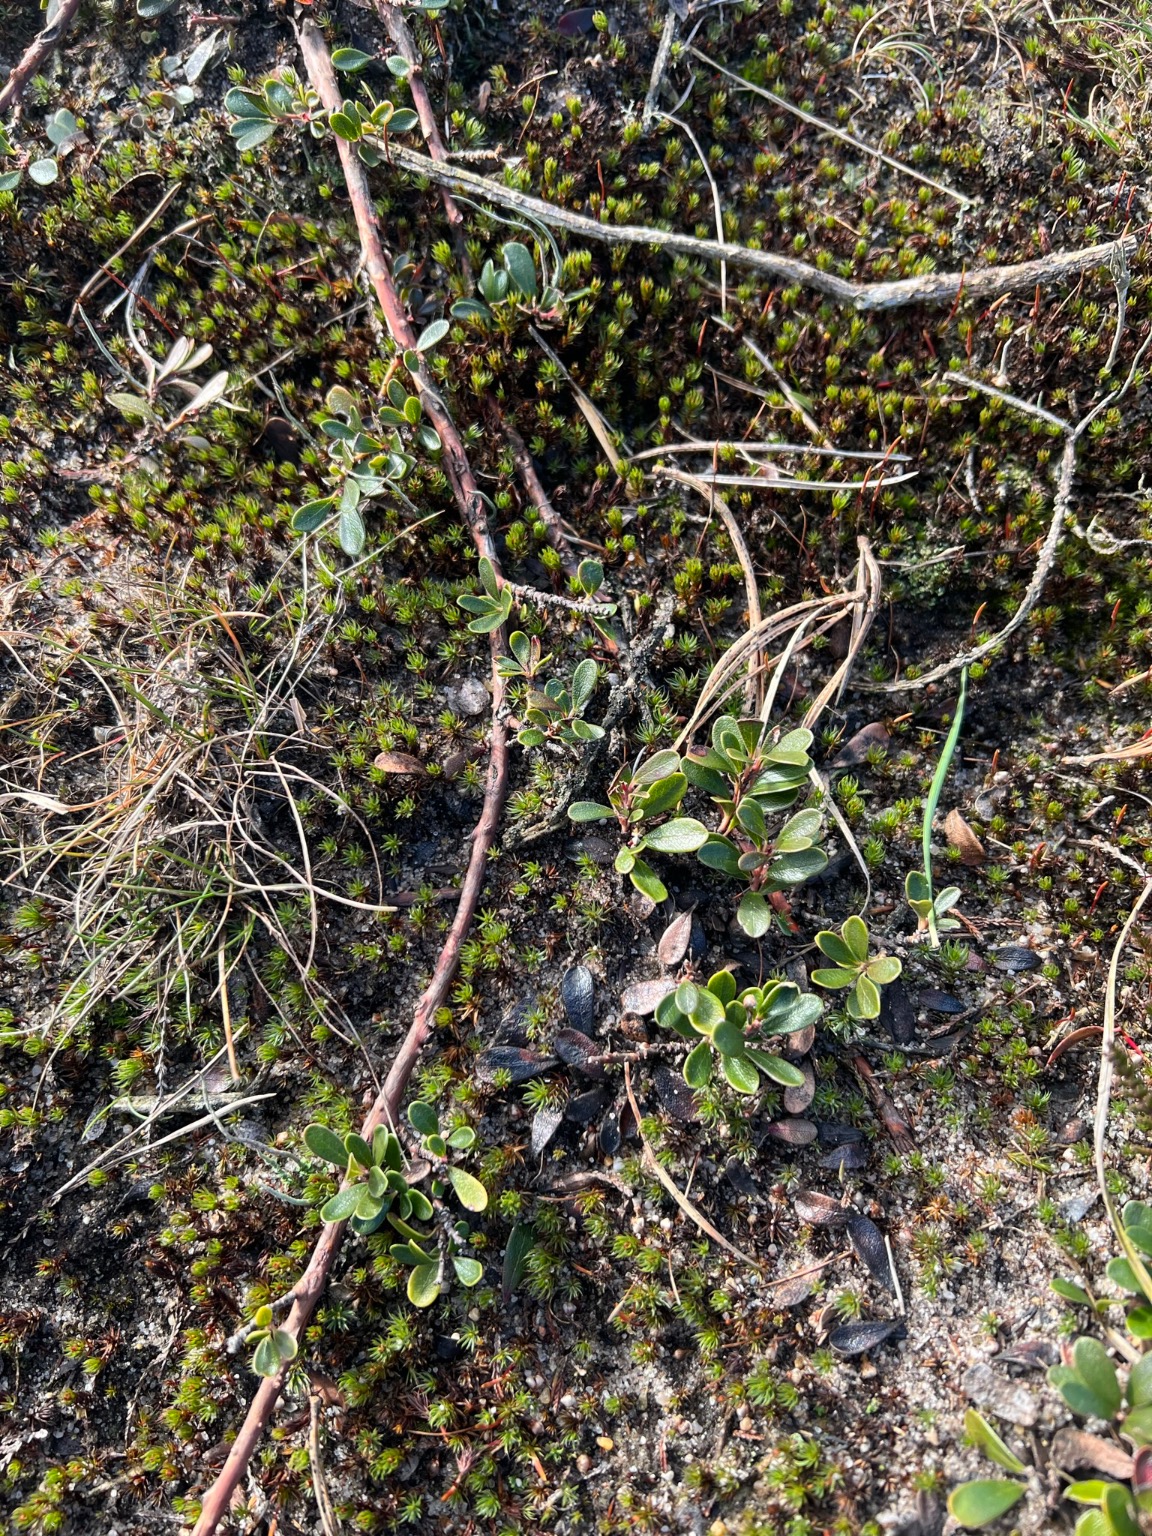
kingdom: Plantae
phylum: Tracheophyta
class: Magnoliopsida
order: Ericales
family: Ericaceae
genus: Arctostaphylos
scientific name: Arctostaphylos uva-ursi
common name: Hede-melbærris
